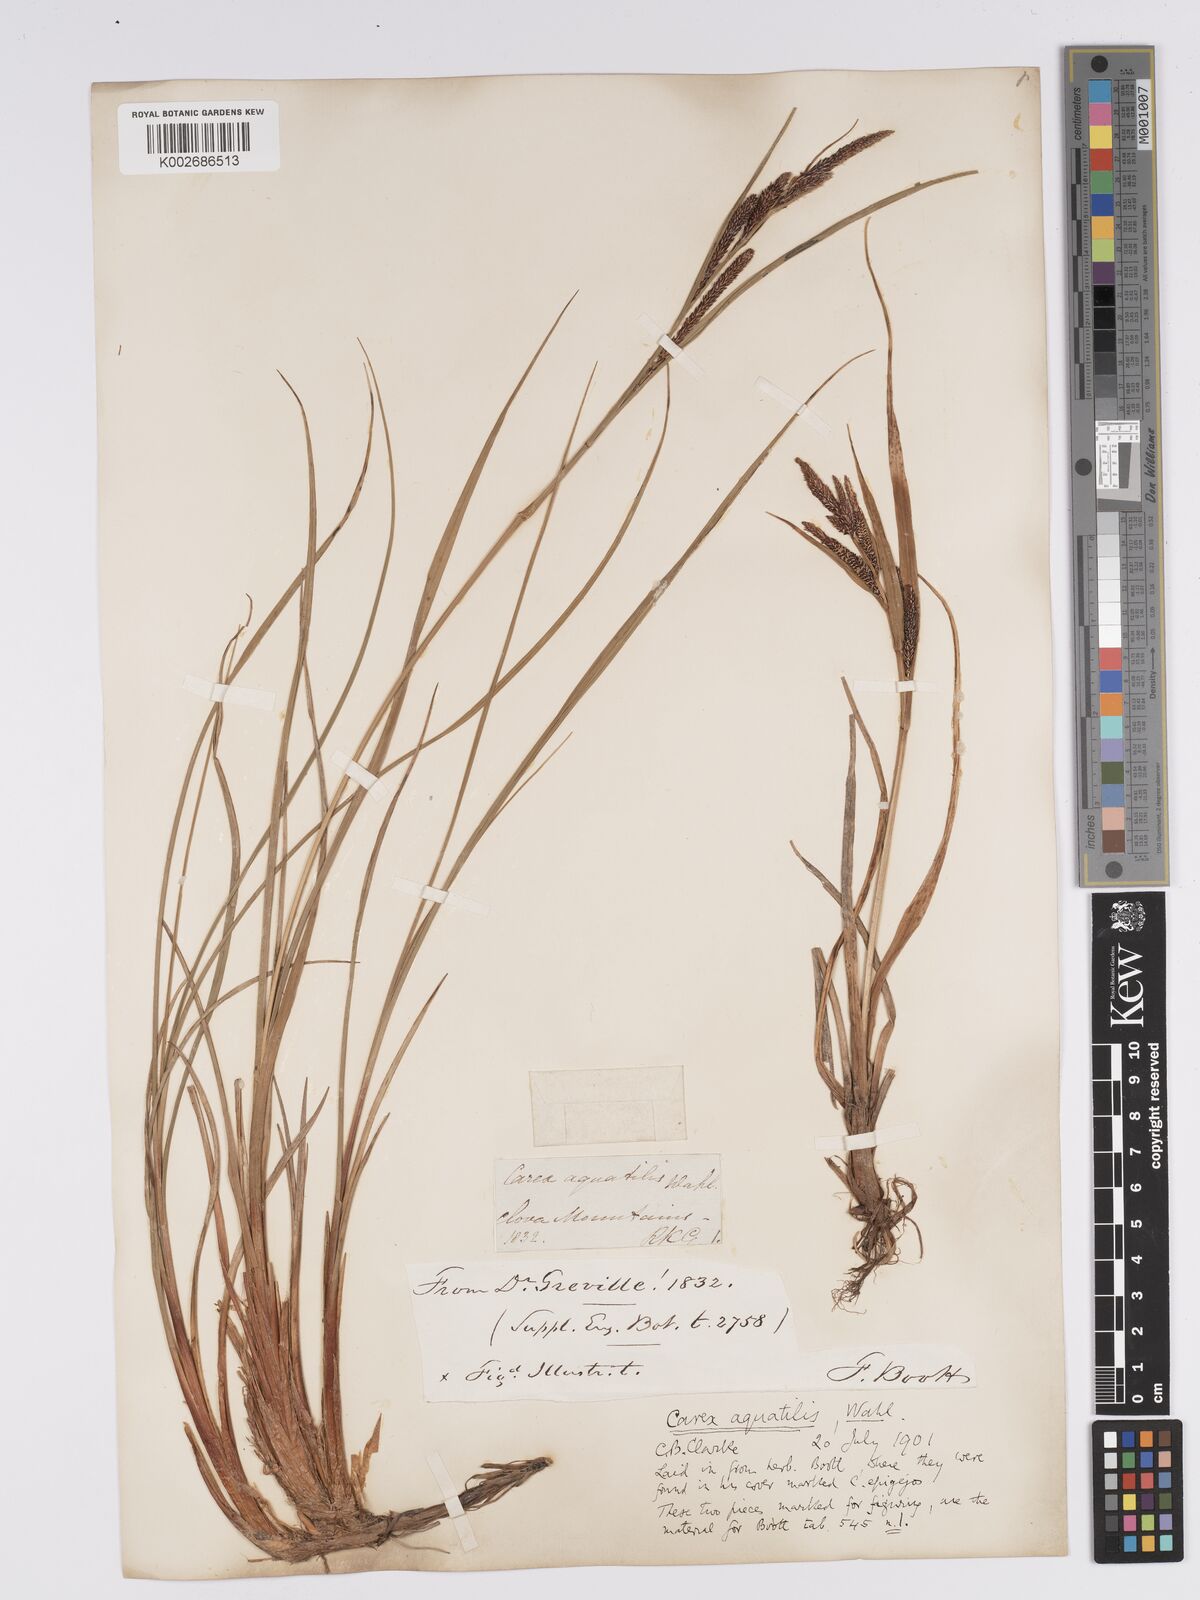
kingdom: Plantae
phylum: Tracheophyta
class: Liliopsida
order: Poales
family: Cyperaceae
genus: Carex
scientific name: Carex aquatilis
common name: Water sedge
